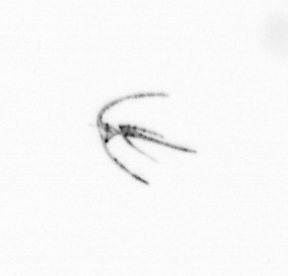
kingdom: Chromista
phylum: Myzozoa
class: Dinophyceae
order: Gonyaulacales
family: Ceratiaceae
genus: Ceratium
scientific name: Ceratium
